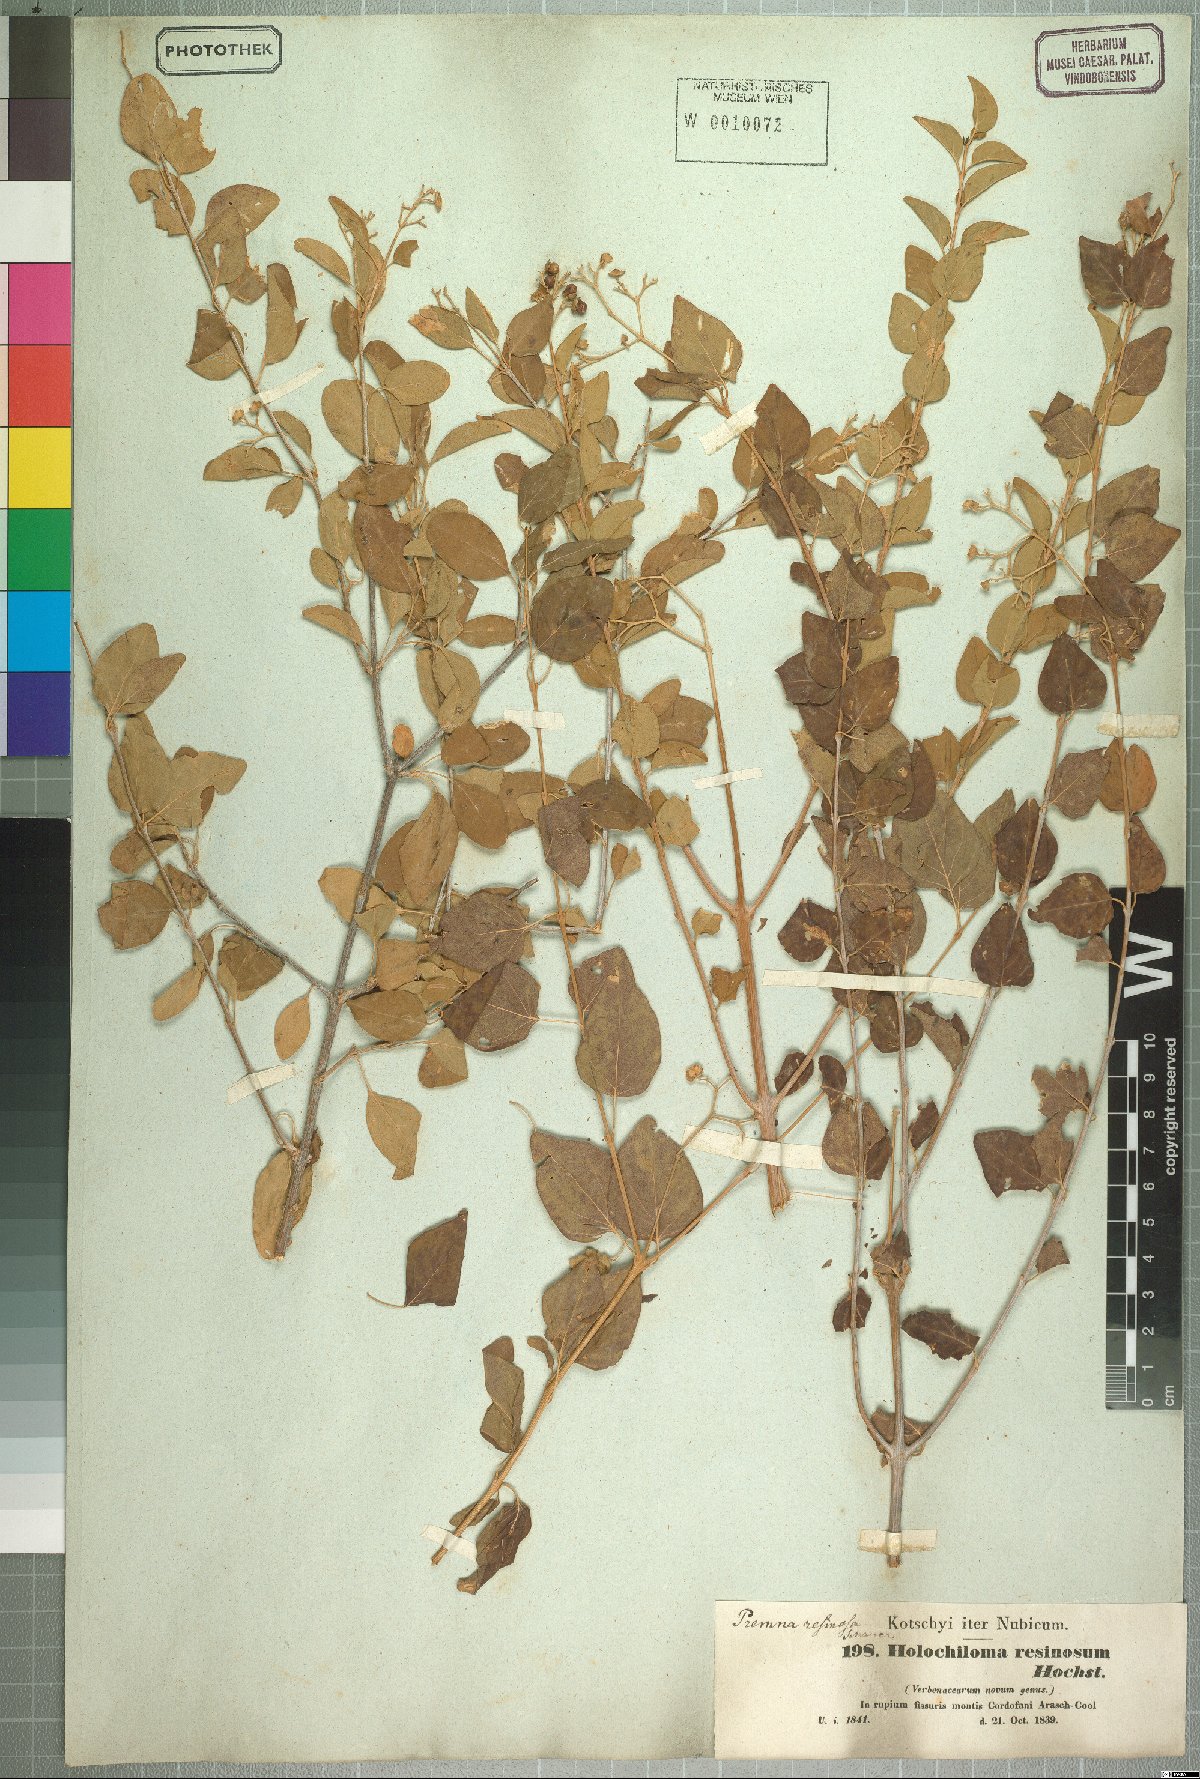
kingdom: Plantae
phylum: Tracheophyta
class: Magnoliopsida
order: Lamiales
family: Lamiaceae
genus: Premna
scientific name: Premna resinosa
